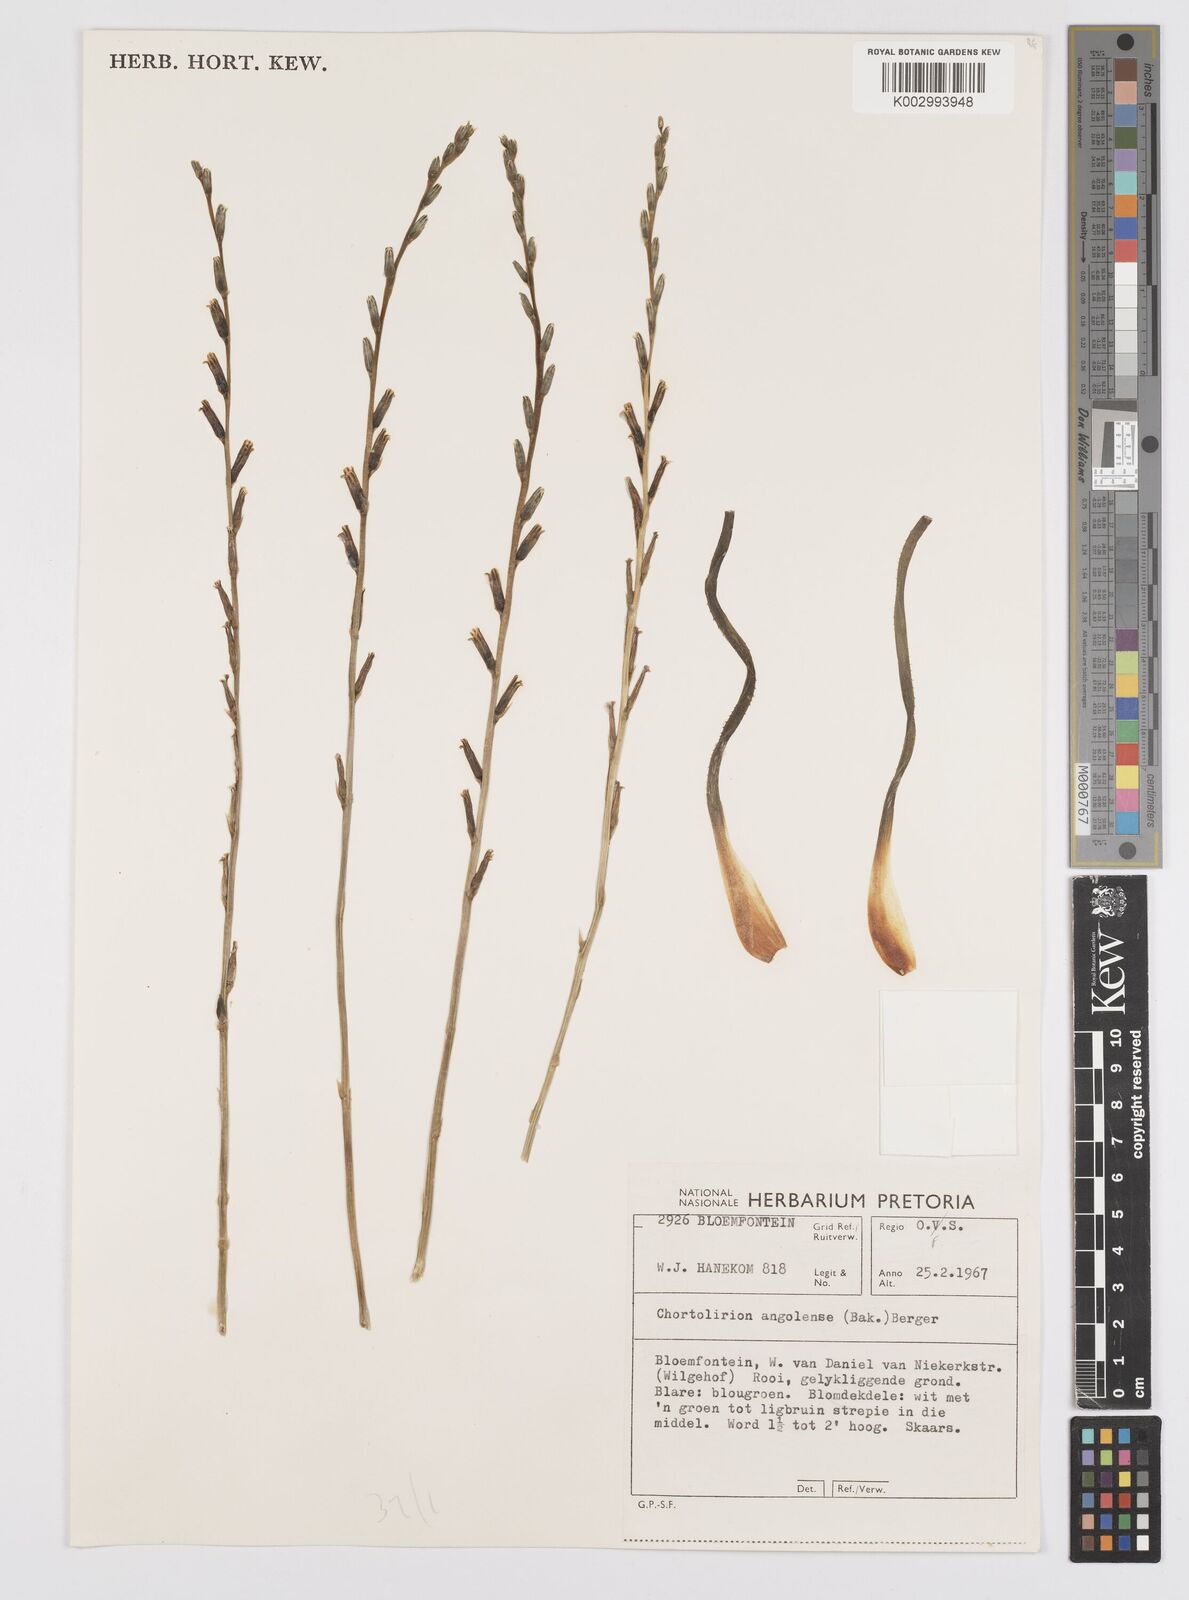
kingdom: Plantae
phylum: Tracheophyta
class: Liliopsida
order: Asparagales
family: Asphodelaceae
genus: Aloe
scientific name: Aloe welwitschii
